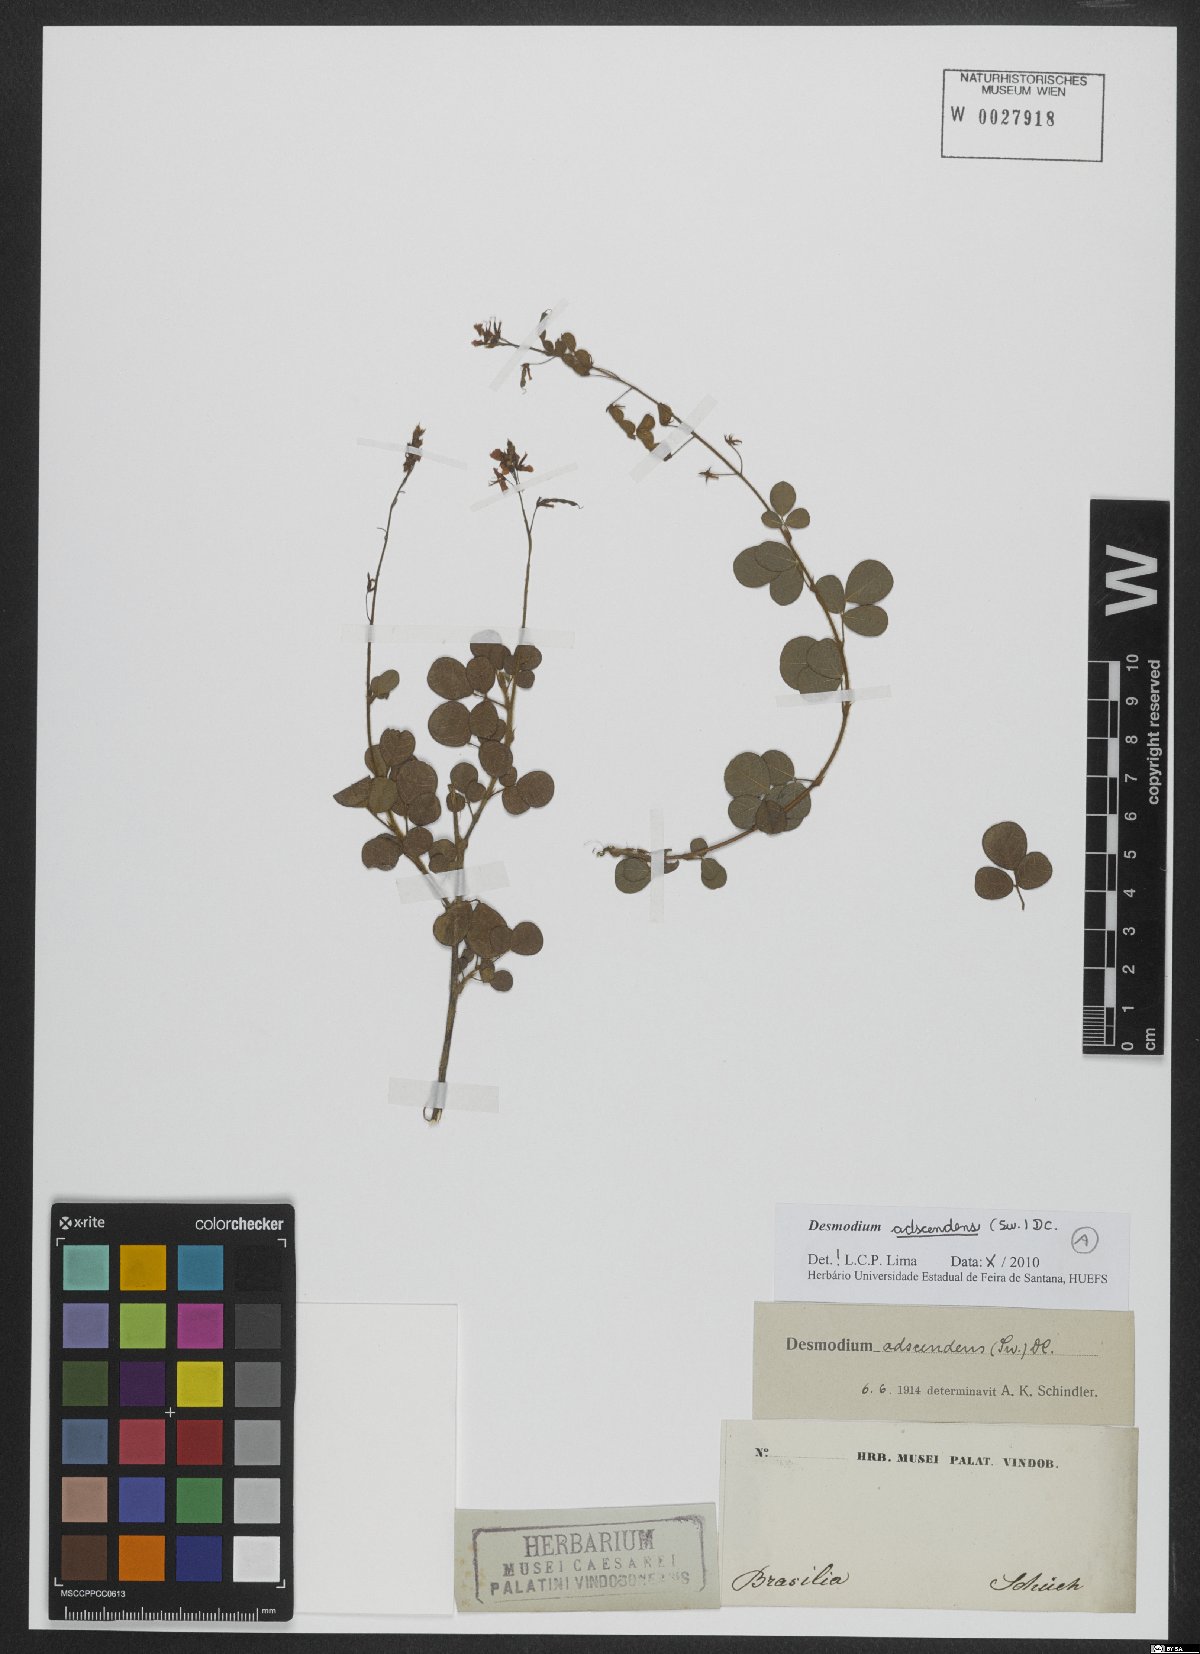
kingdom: Plantae
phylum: Tracheophyta
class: Magnoliopsida
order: Fabales
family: Fabaceae
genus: Grona
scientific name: Grona adscendens
